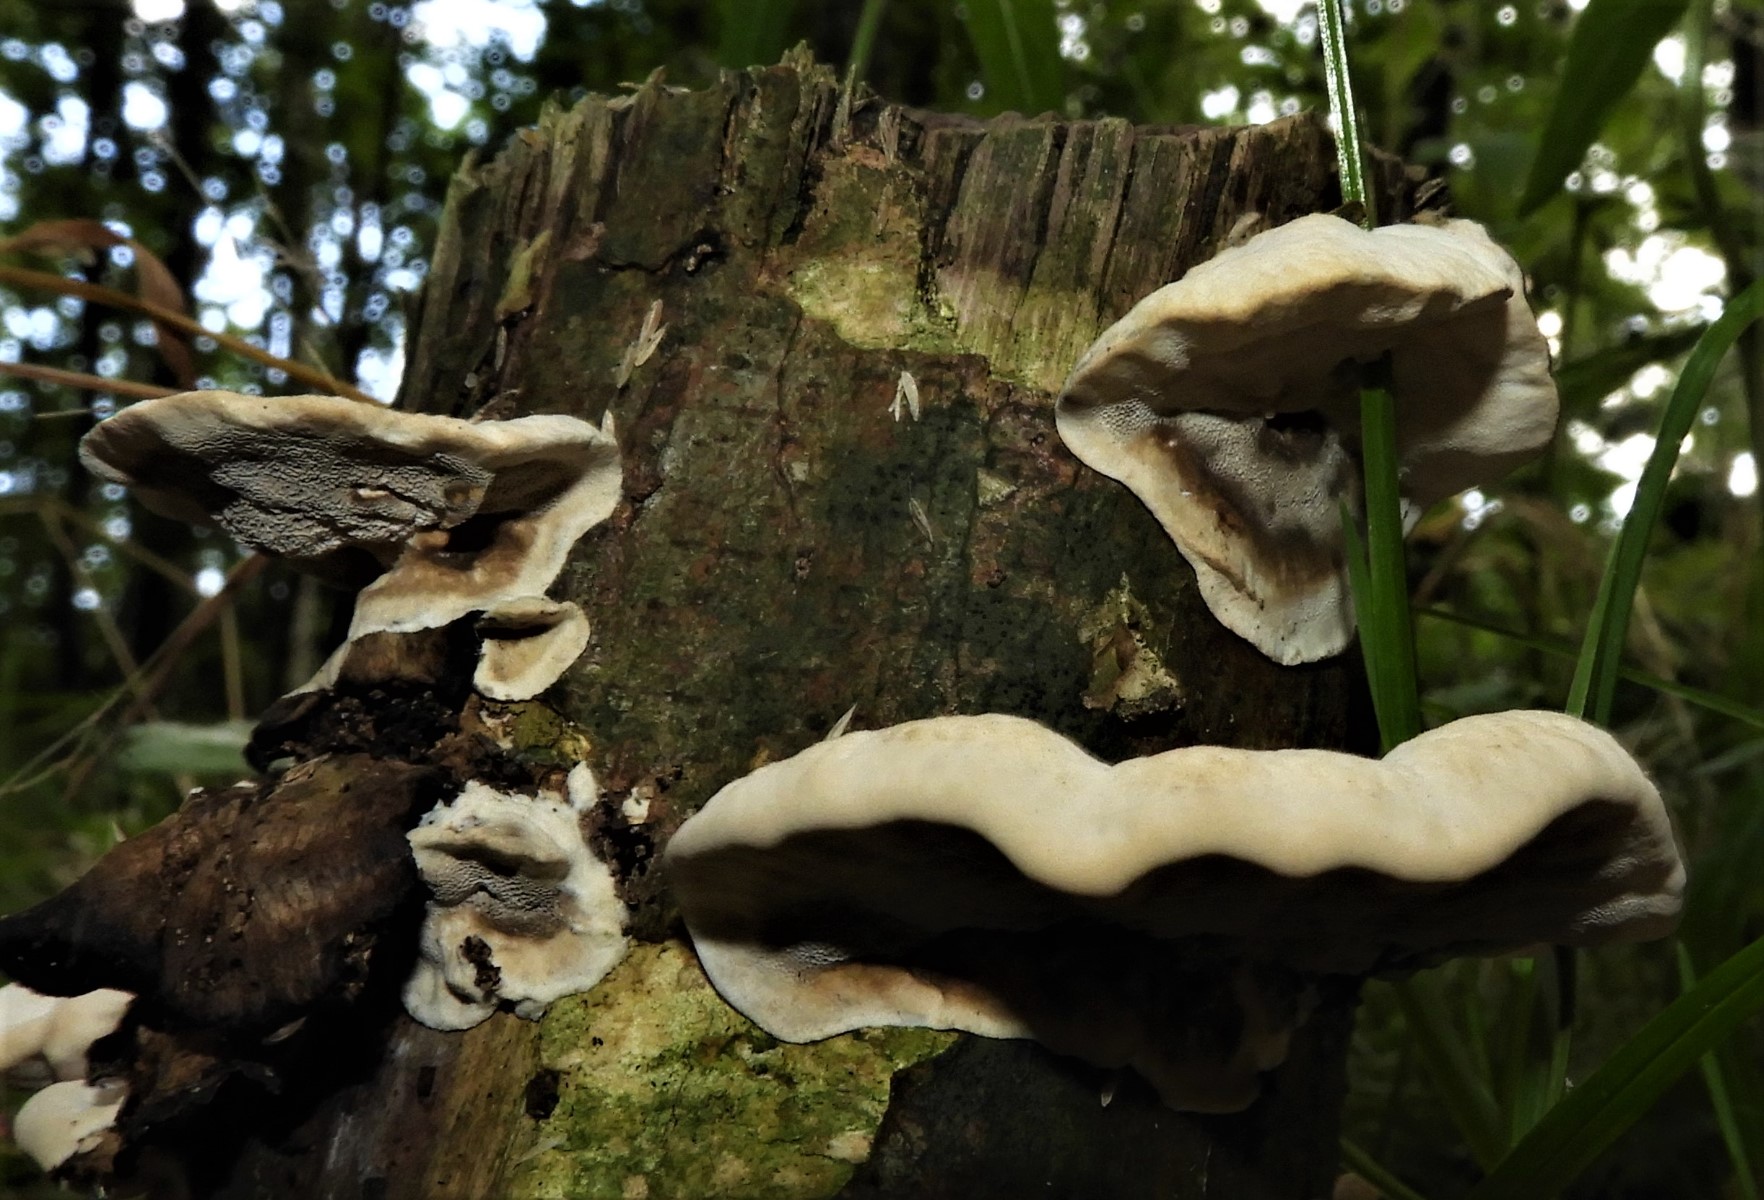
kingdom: Fungi
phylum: Basidiomycota
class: Agaricomycetes
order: Polyporales
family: Phanerochaetaceae
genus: Bjerkandera
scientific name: Bjerkandera adusta
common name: sveden sodporesvamp
